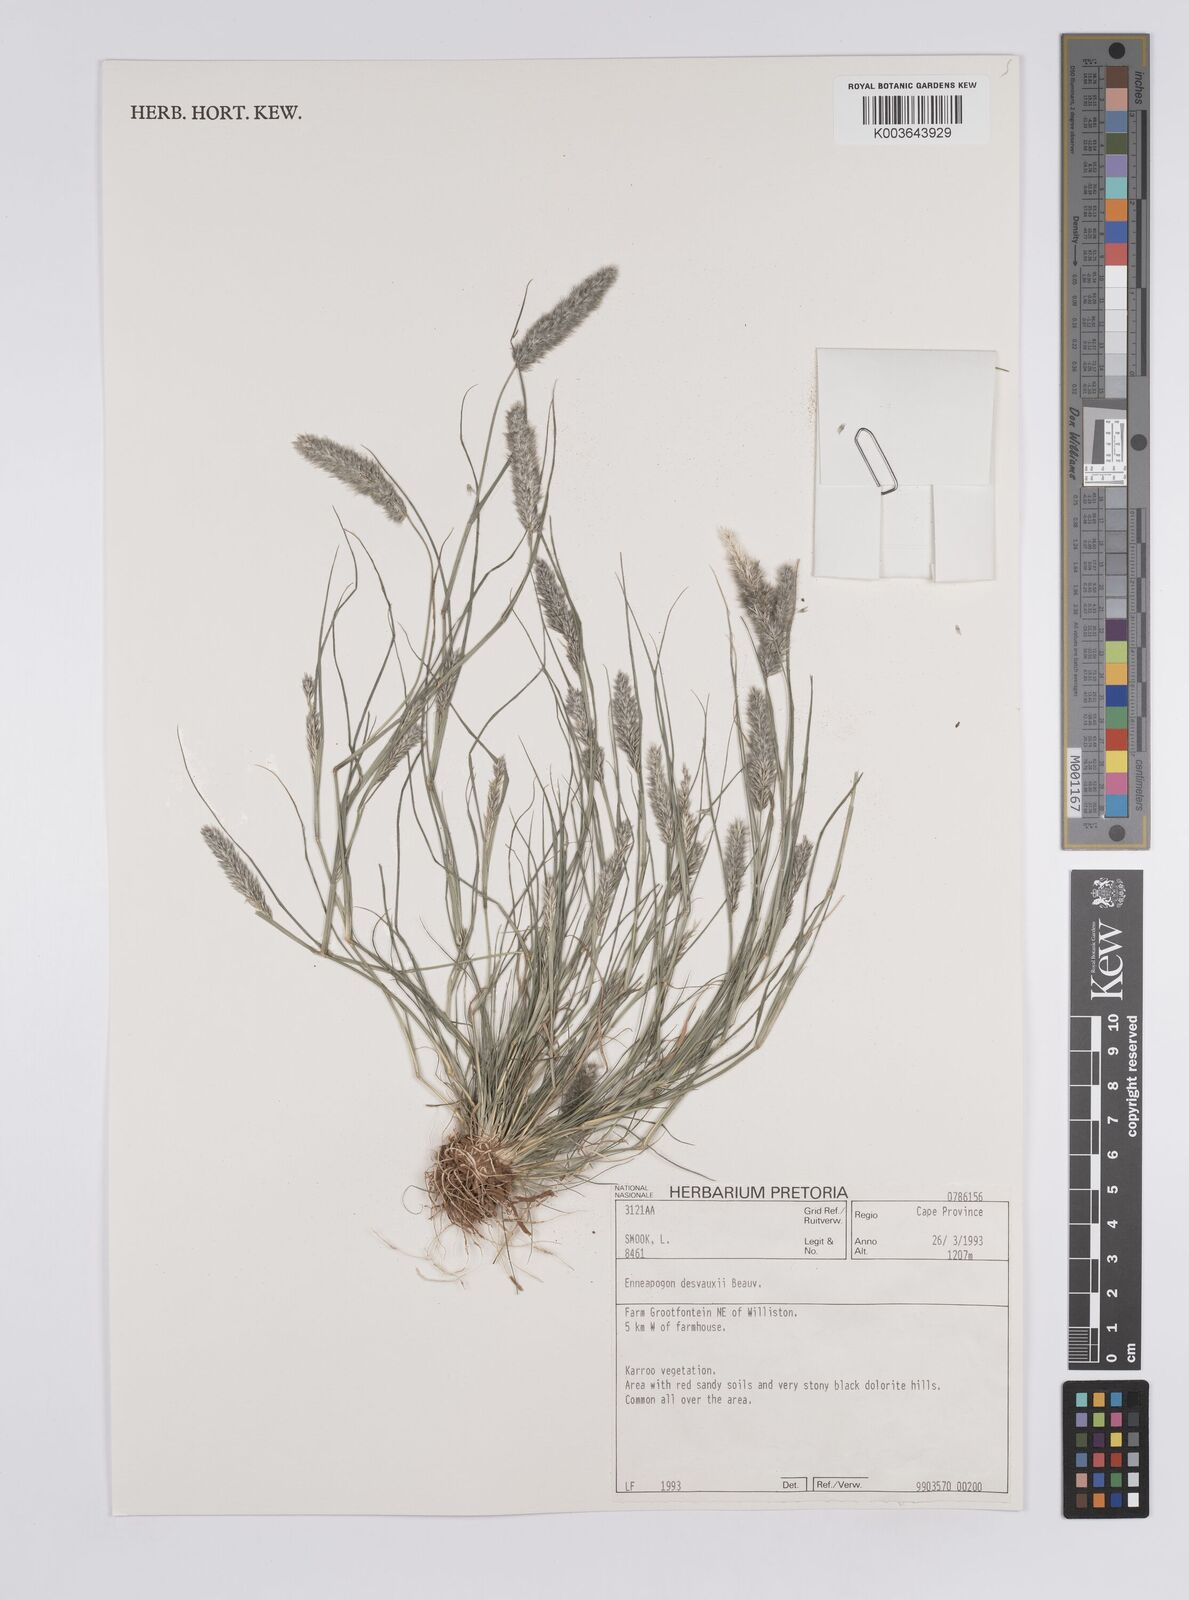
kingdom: Plantae
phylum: Tracheophyta
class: Liliopsida
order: Poales
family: Poaceae
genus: Enneapogon
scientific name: Enneapogon desvauxii
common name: Feather pappus grass
